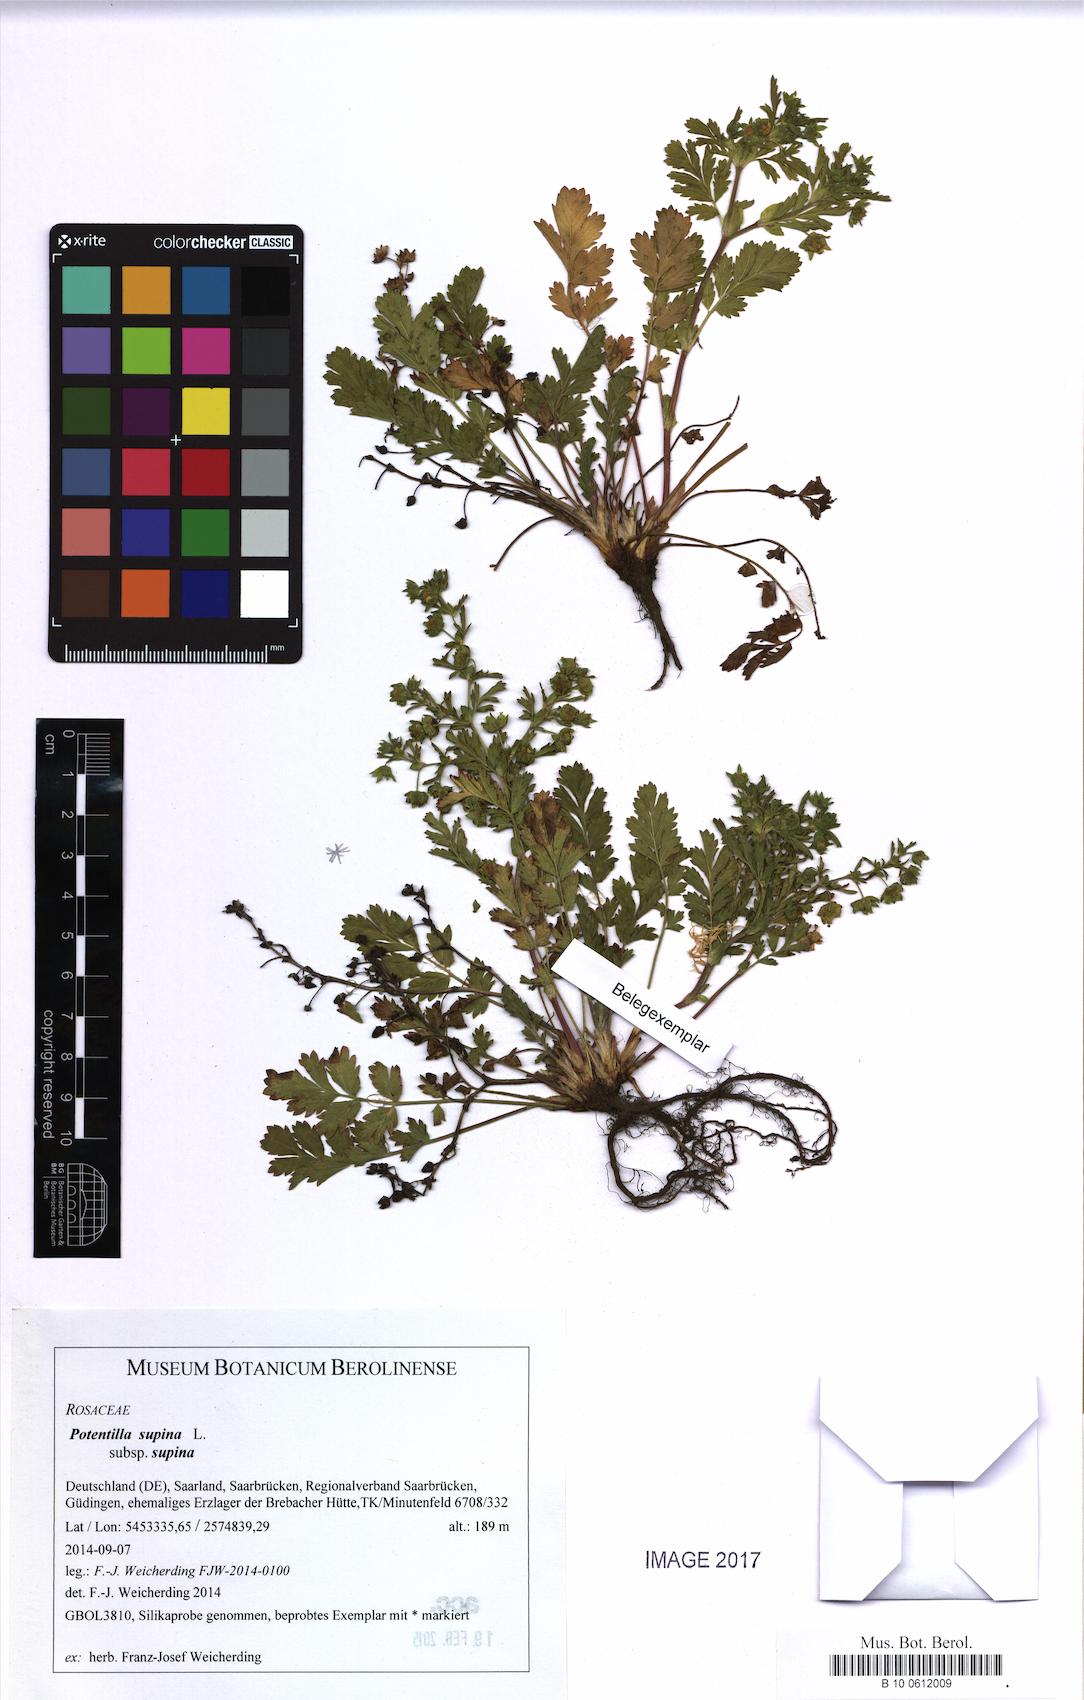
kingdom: Plantae
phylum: Tracheophyta
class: Magnoliopsida
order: Rosales
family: Rosaceae
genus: Potentilla
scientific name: Potentilla supina
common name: Prostrate cinquefoil
